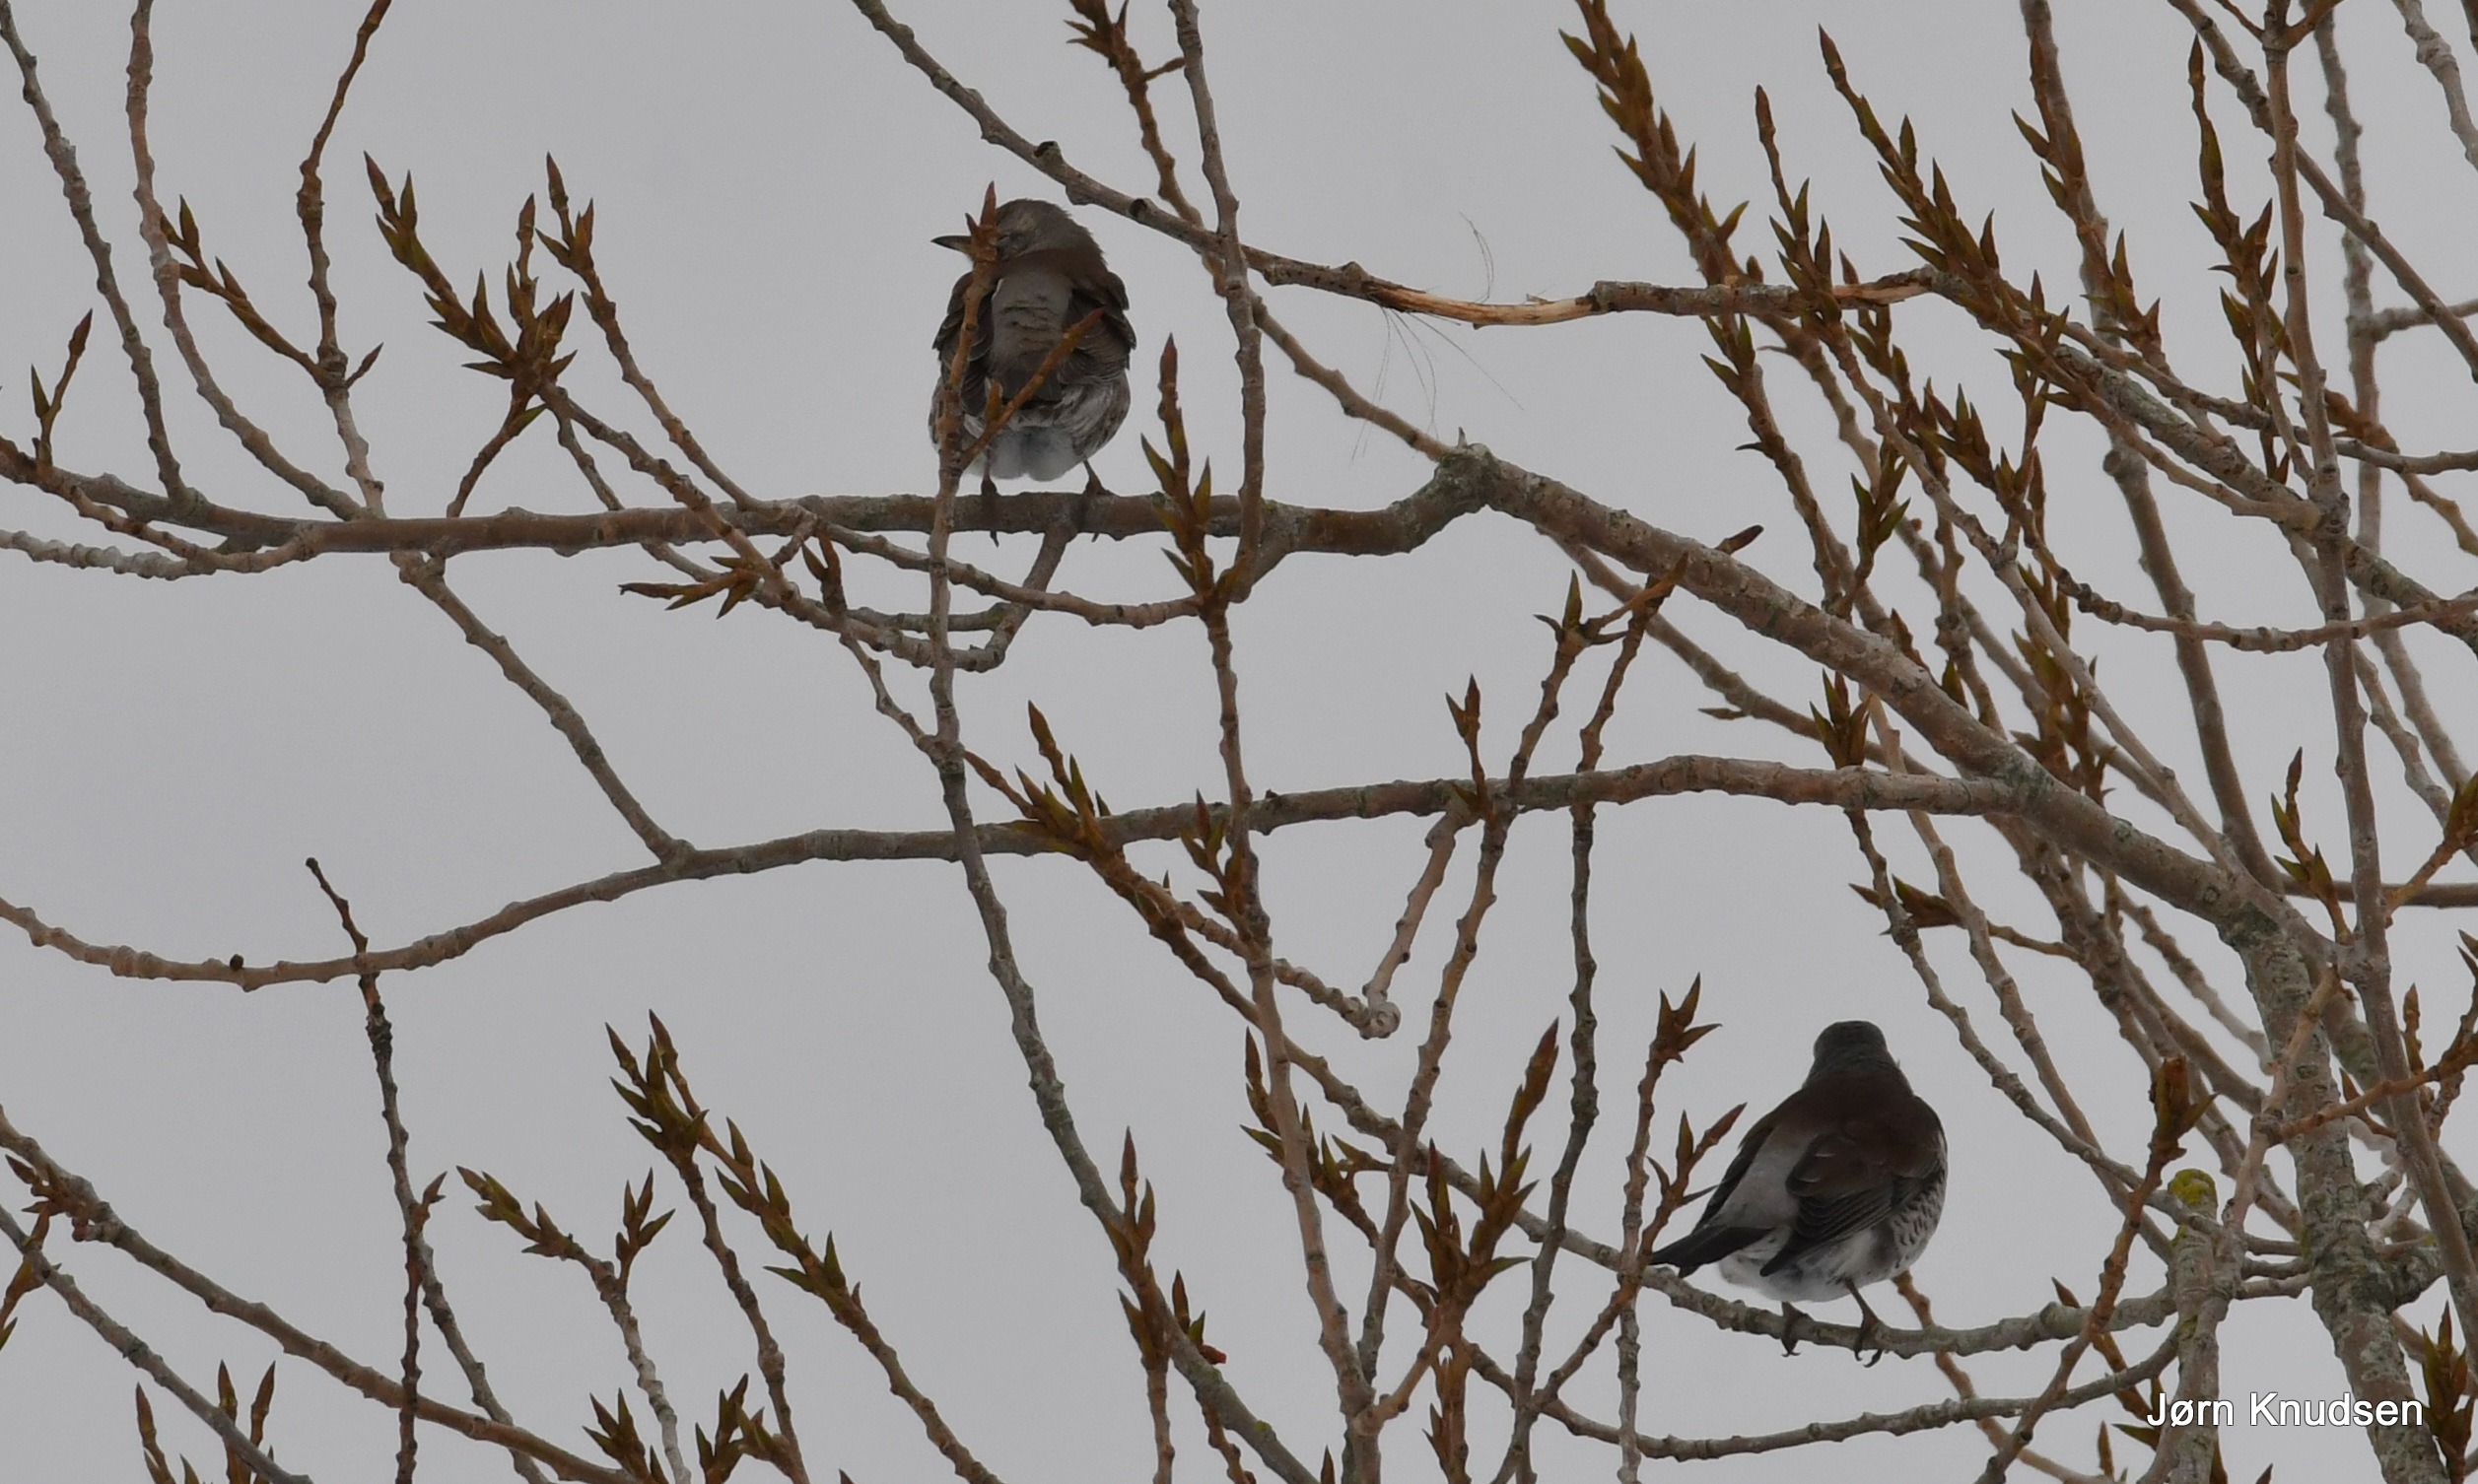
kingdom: Animalia
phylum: Chordata
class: Aves
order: Passeriformes
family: Turdidae
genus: Turdus
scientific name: Turdus pilaris
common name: Sjagger
